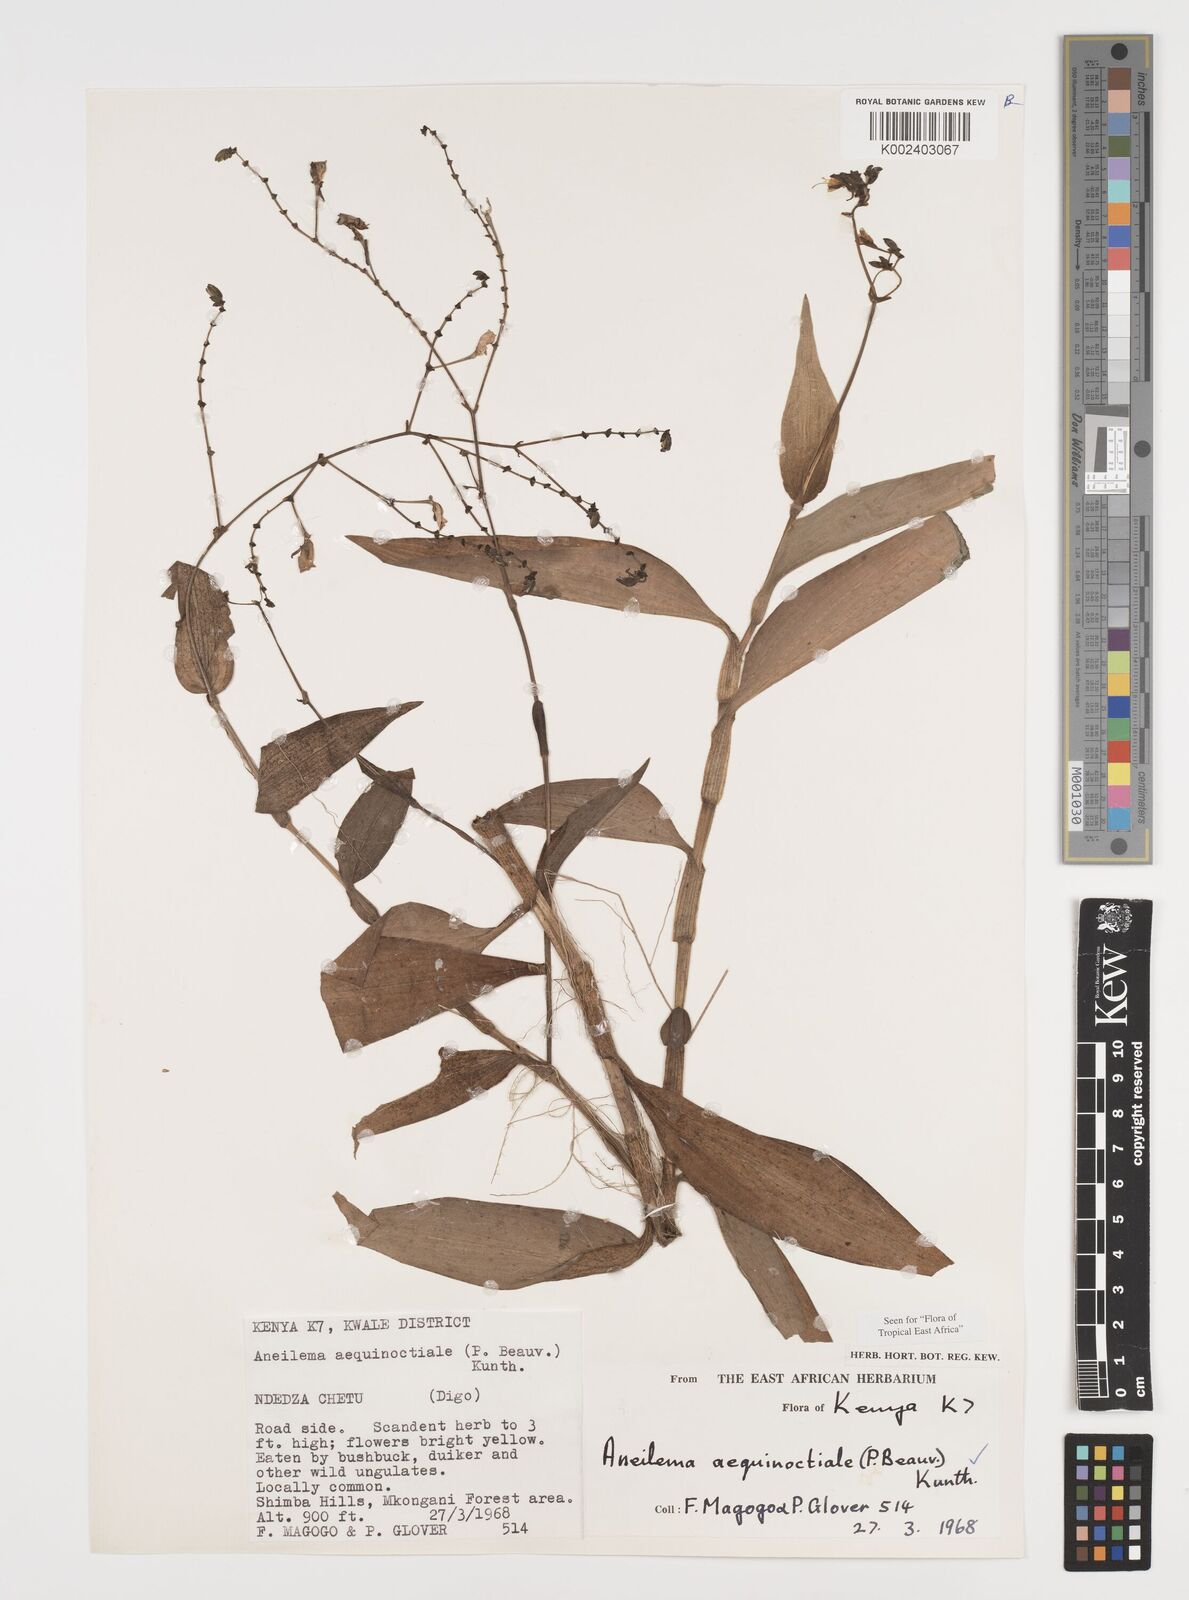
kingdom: Plantae
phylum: Tracheophyta
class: Liliopsida
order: Commelinales
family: Commelinaceae
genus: Aneilema
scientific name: Aneilema aequinoctiale
